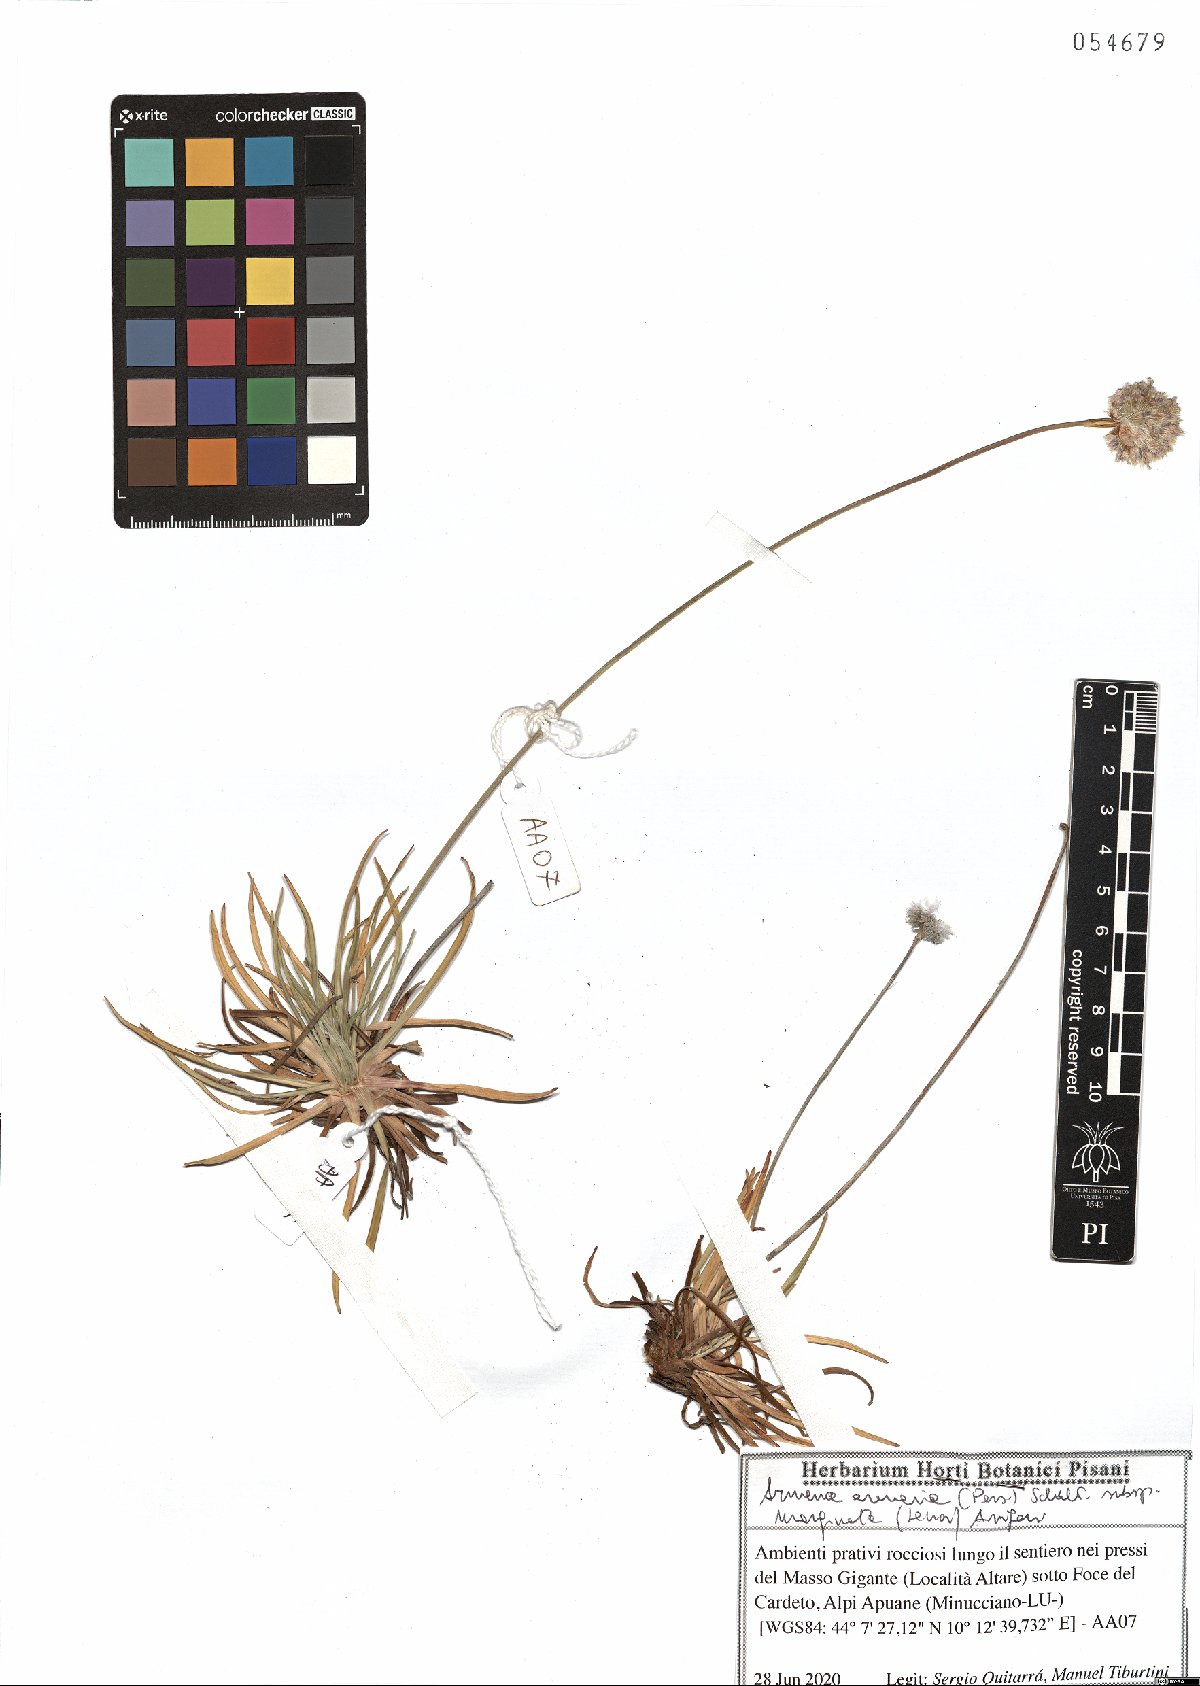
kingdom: Plantae
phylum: Tracheophyta
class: Magnoliopsida
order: Caryophyllales
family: Plumbaginaceae
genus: Armeria
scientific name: Armeria arenaria
